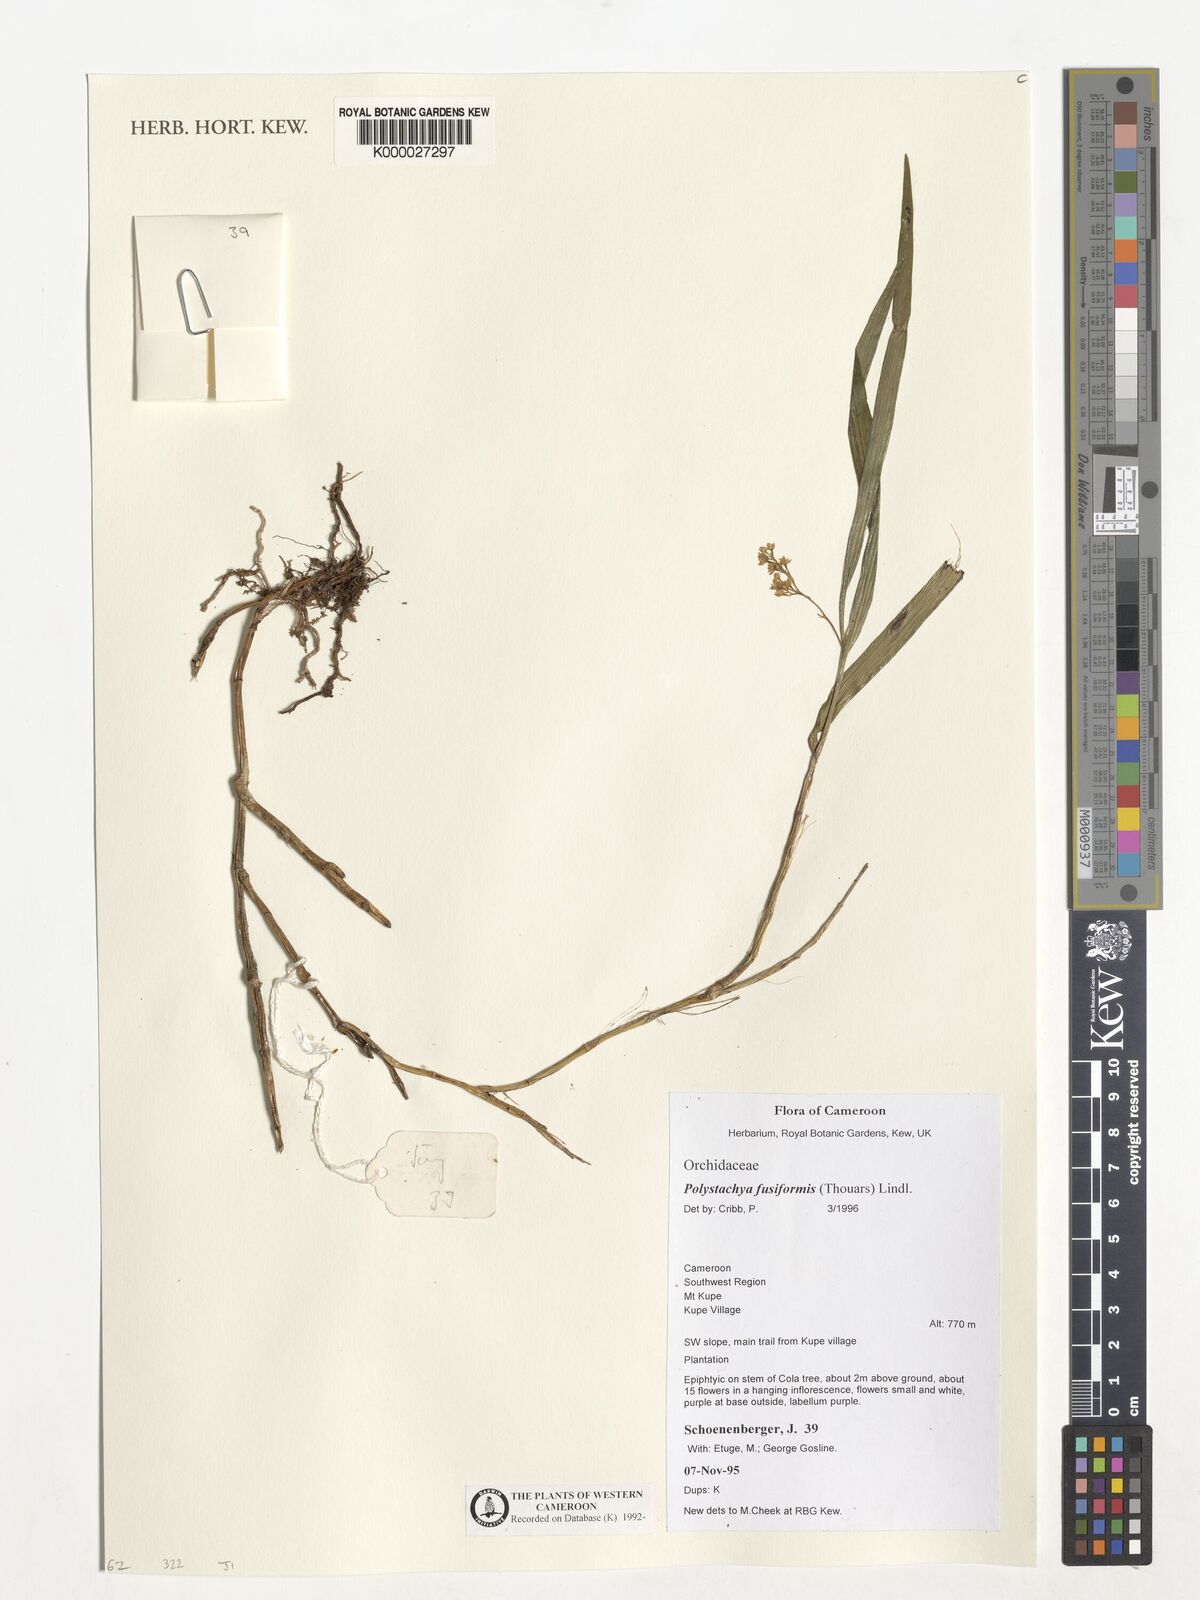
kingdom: Plantae
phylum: Tracheophyta
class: Liliopsida
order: Asparagales
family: Orchidaceae
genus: Polystachya
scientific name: Polystachya fusiformis
